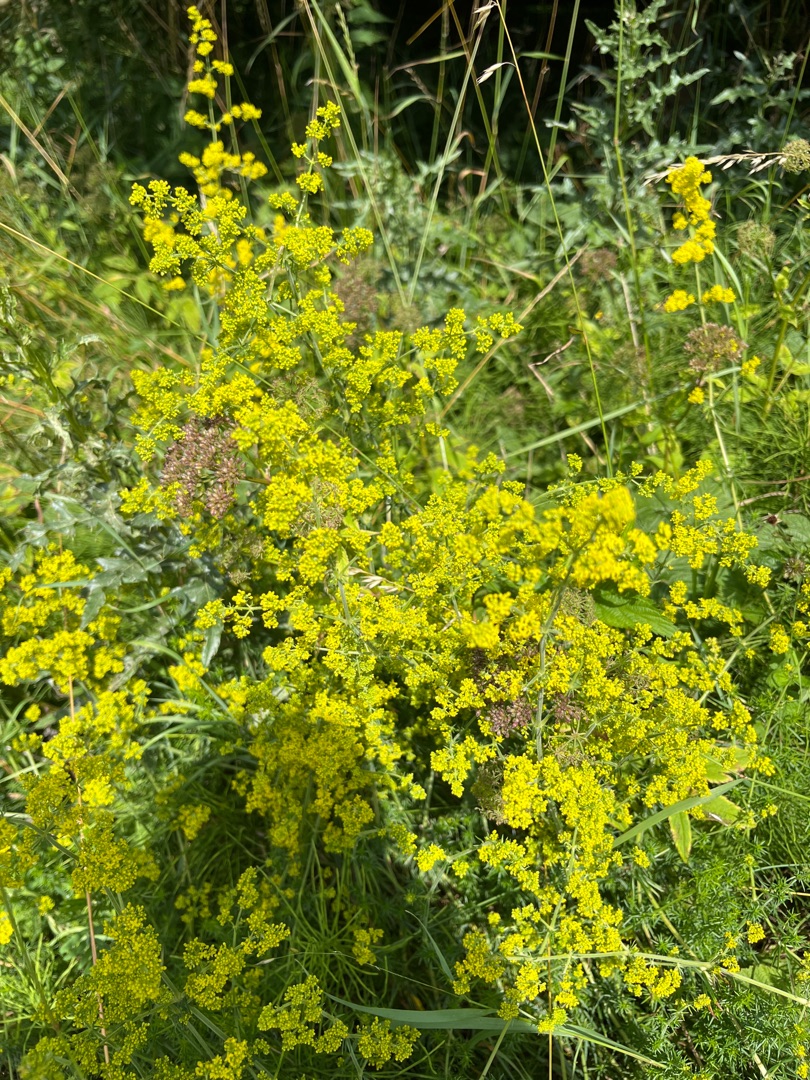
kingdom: Plantae
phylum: Tracheophyta
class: Magnoliopsida
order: Gentianales
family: Rubiaceae
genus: Galium
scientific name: Galium verum
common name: Gul snerre
